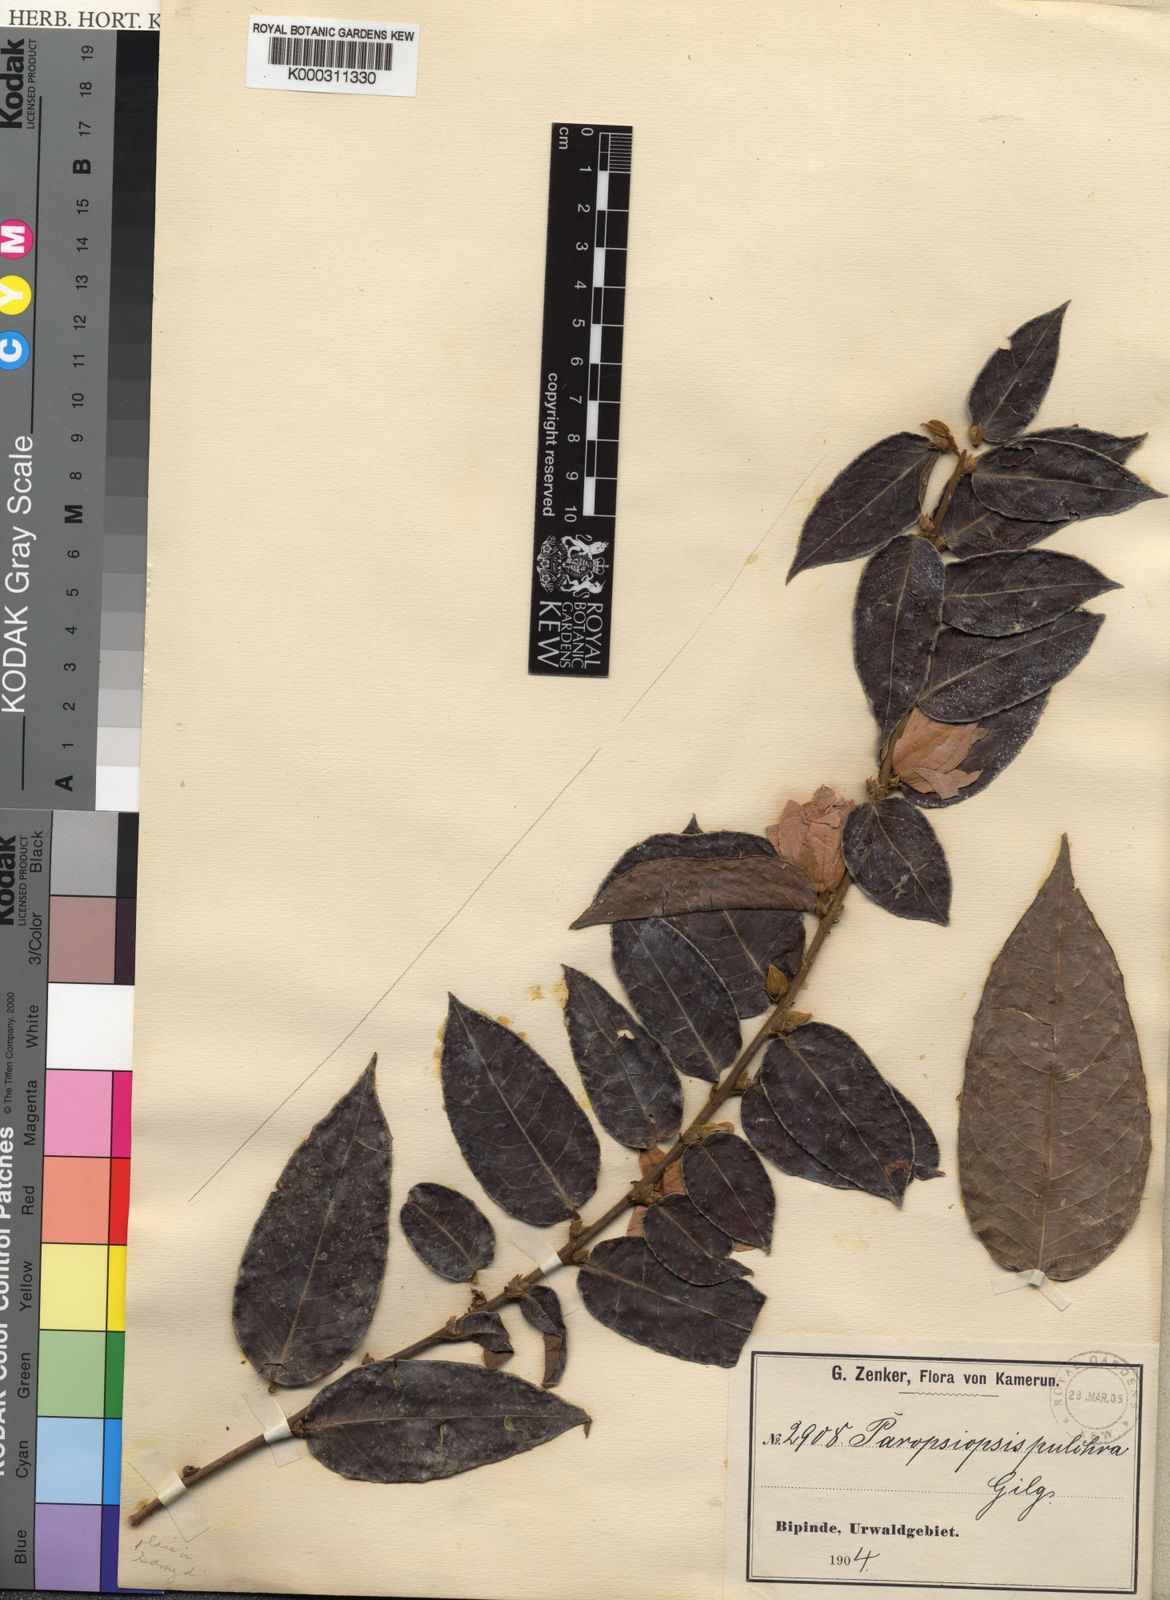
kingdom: Plantae
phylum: Tracheophyta
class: Magnoliopsida
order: Malpighiales
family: Passifloraceae
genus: Paropsiopsis
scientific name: Paropsiopsis pulchra
